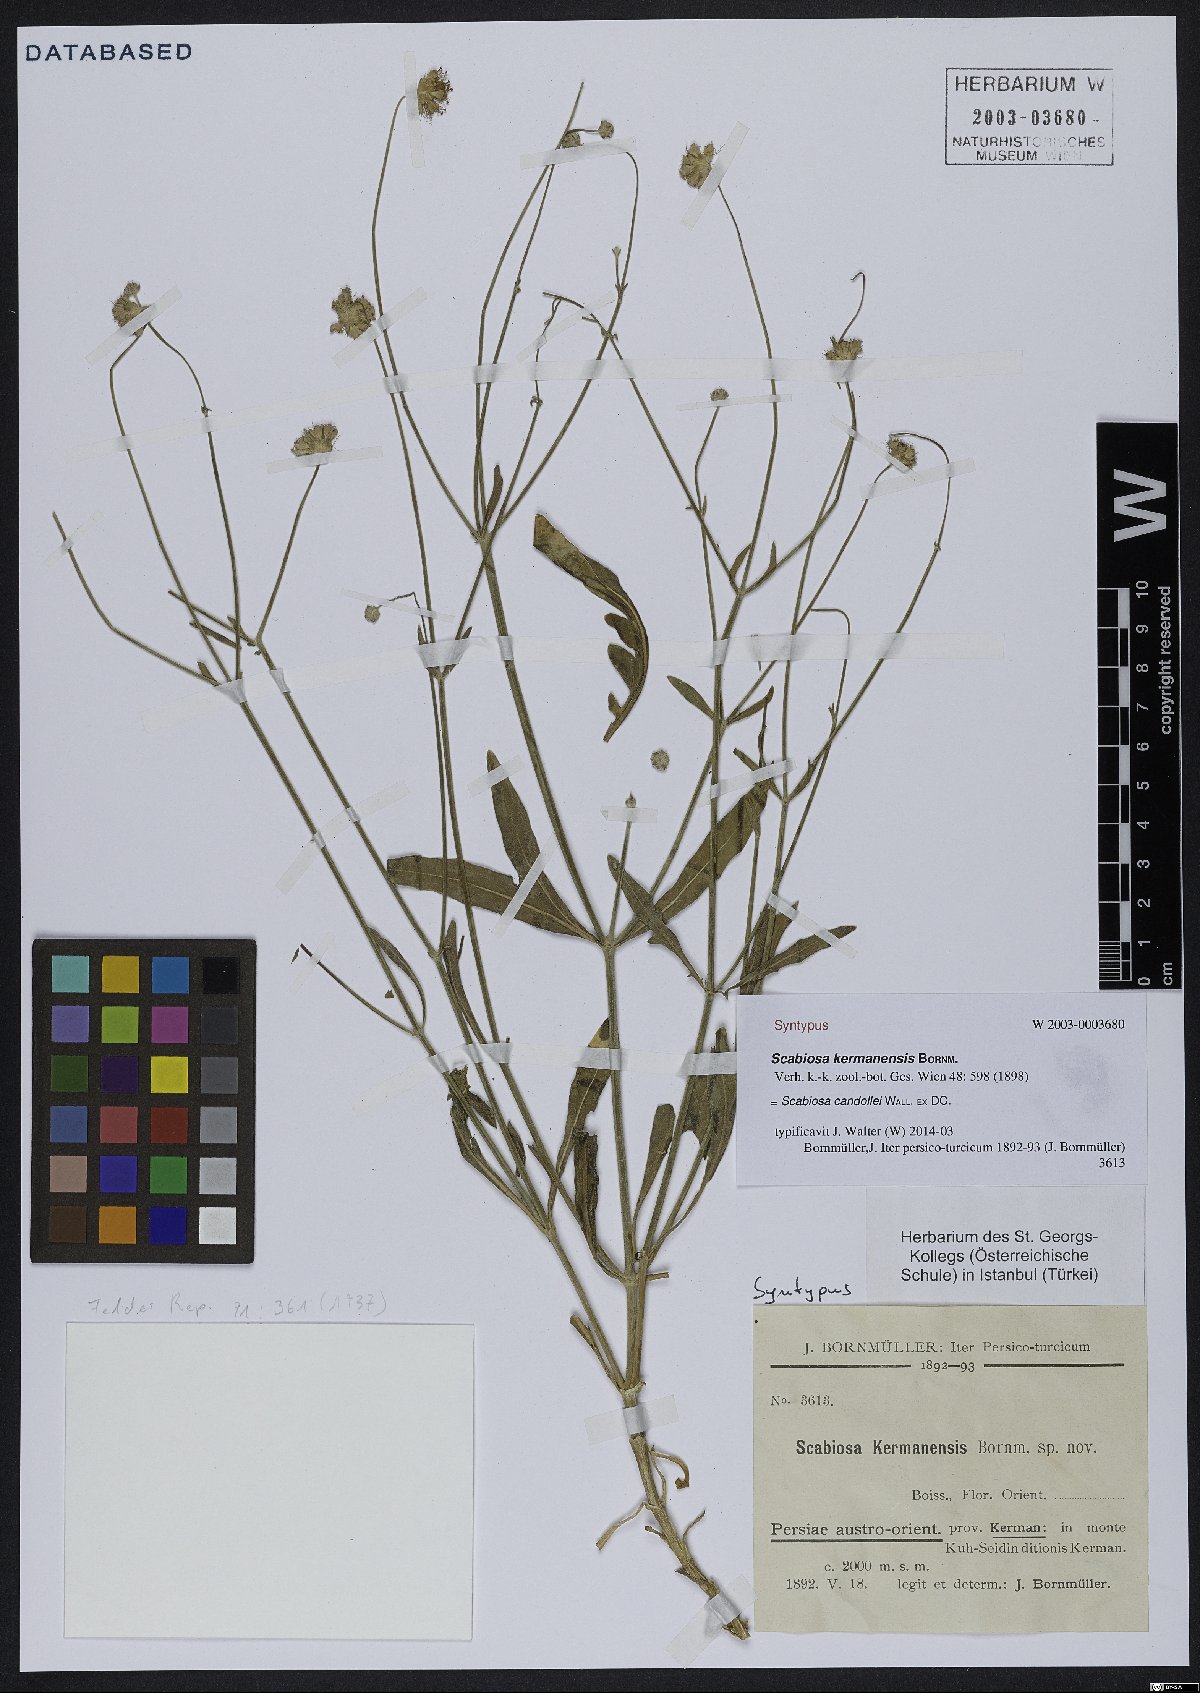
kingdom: Plantae
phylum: Tracheophyta
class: Magnoliopsida
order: Dipsacales
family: Caprifoliaceae
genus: Lomelosia
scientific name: Lomelosia candollei
